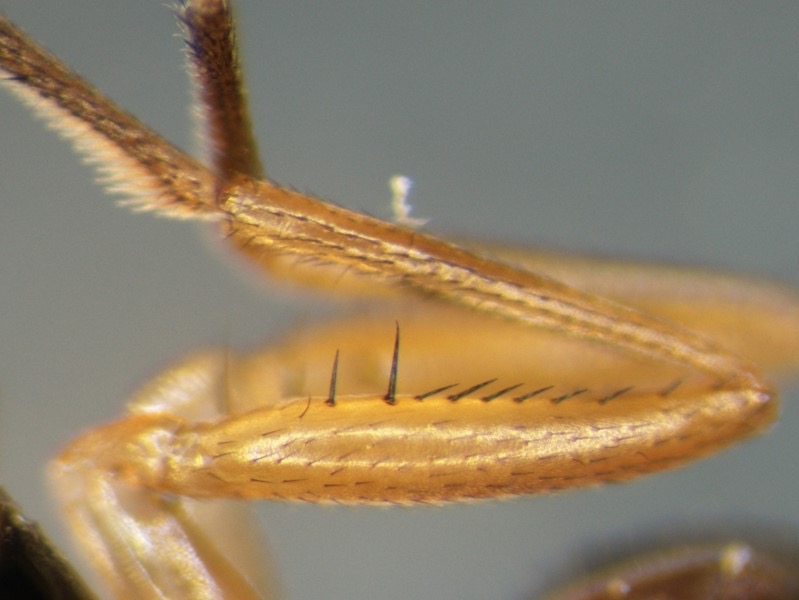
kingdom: Animalia
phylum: Arthropoda
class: Insecta
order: Diptera
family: Sepsidae
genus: Nemopoda
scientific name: Nemopoda nitidula
